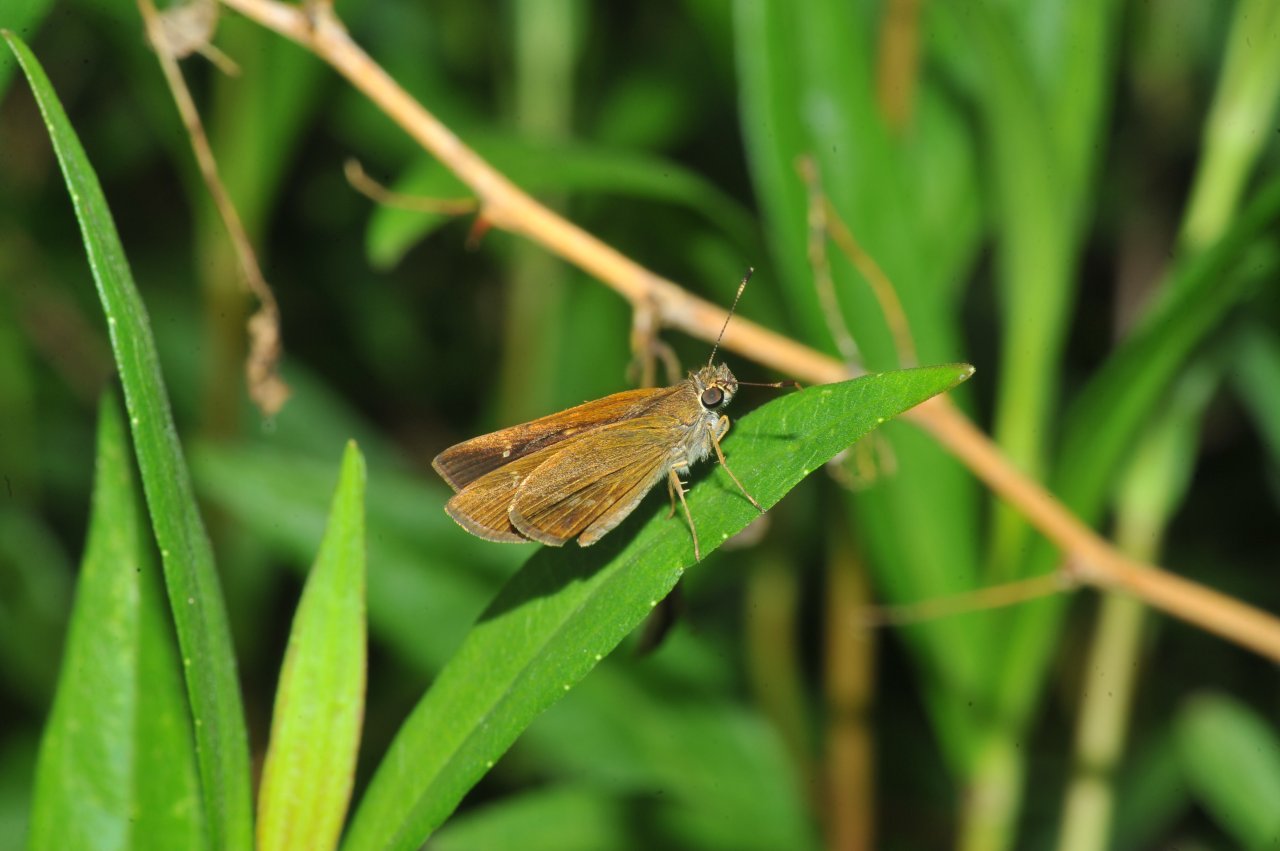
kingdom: Animalia
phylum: Arthropoda
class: Insecta
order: Lepidoptera
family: Hesperiidae
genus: Cymaenes
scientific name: Cymaenes tripunctus
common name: Three-spotted Skipper
